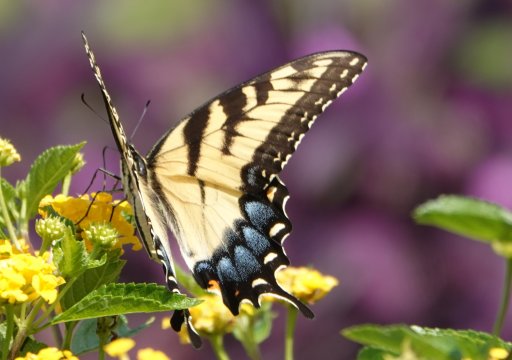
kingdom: Animalia
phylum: Arthropoda
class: Insecta
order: Lepidoptera
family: Papilionidae
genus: Pterourus
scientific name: Pterourus glaucus
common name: Eastern Tiger Swallowtail
